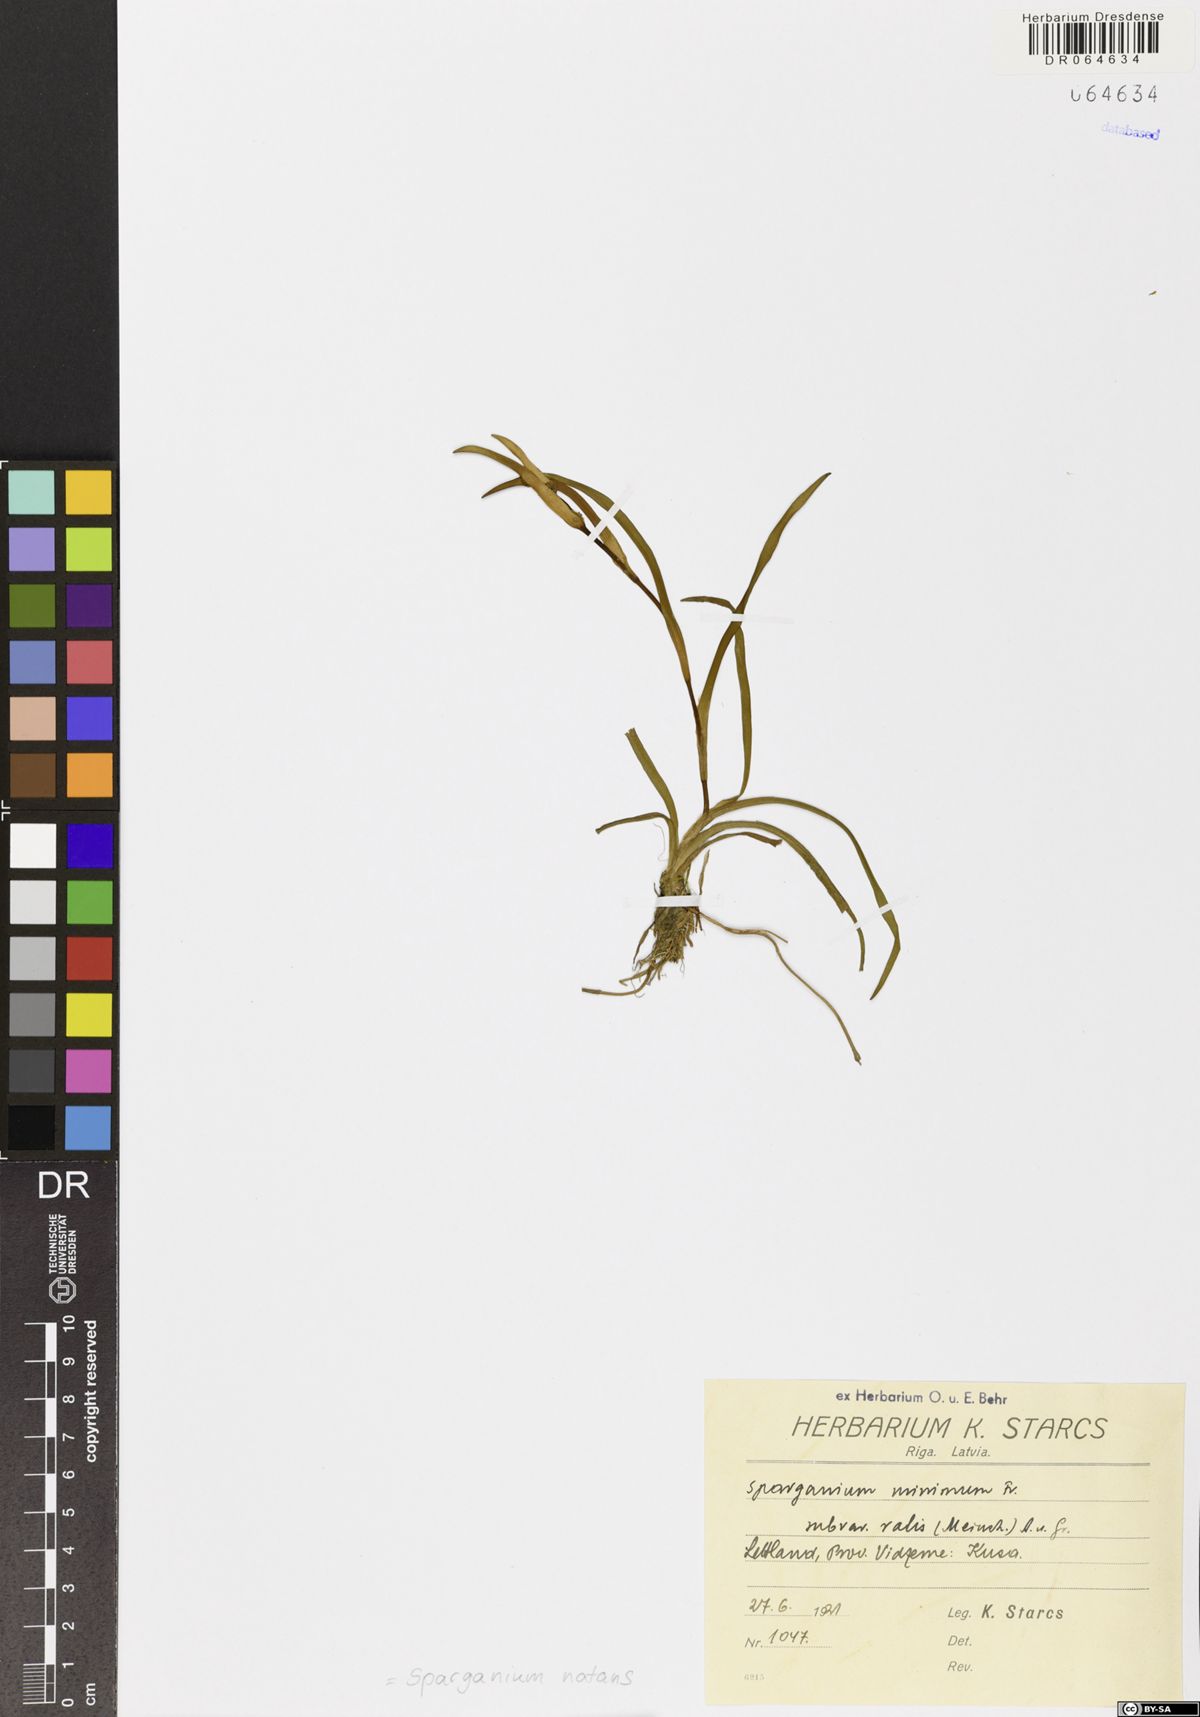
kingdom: Plantae
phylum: Tracheophyta
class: Liliopsida
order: Poales
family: Typhaceae
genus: Sparganium
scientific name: Sparganium natans
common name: Least bur-reed
